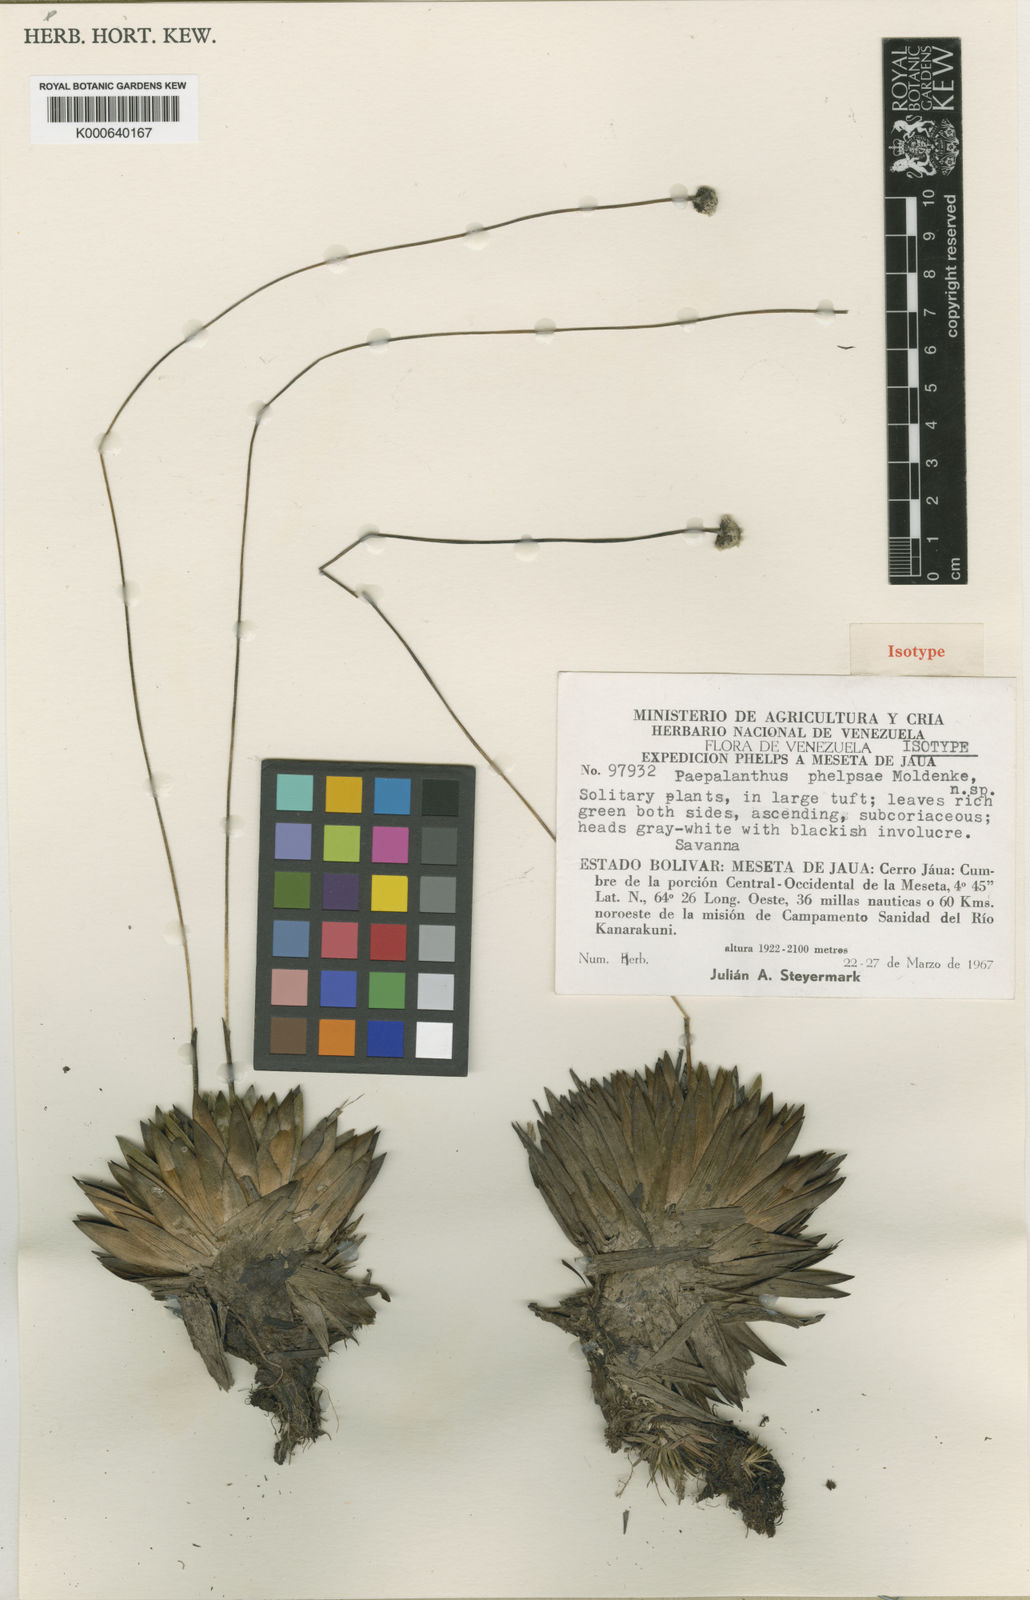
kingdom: Plantae
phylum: Tracheophyta
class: Liliopsida
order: Poales
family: Eriocaulaceae
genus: Paepalanthus
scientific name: Paepalanthus phelpsiae
